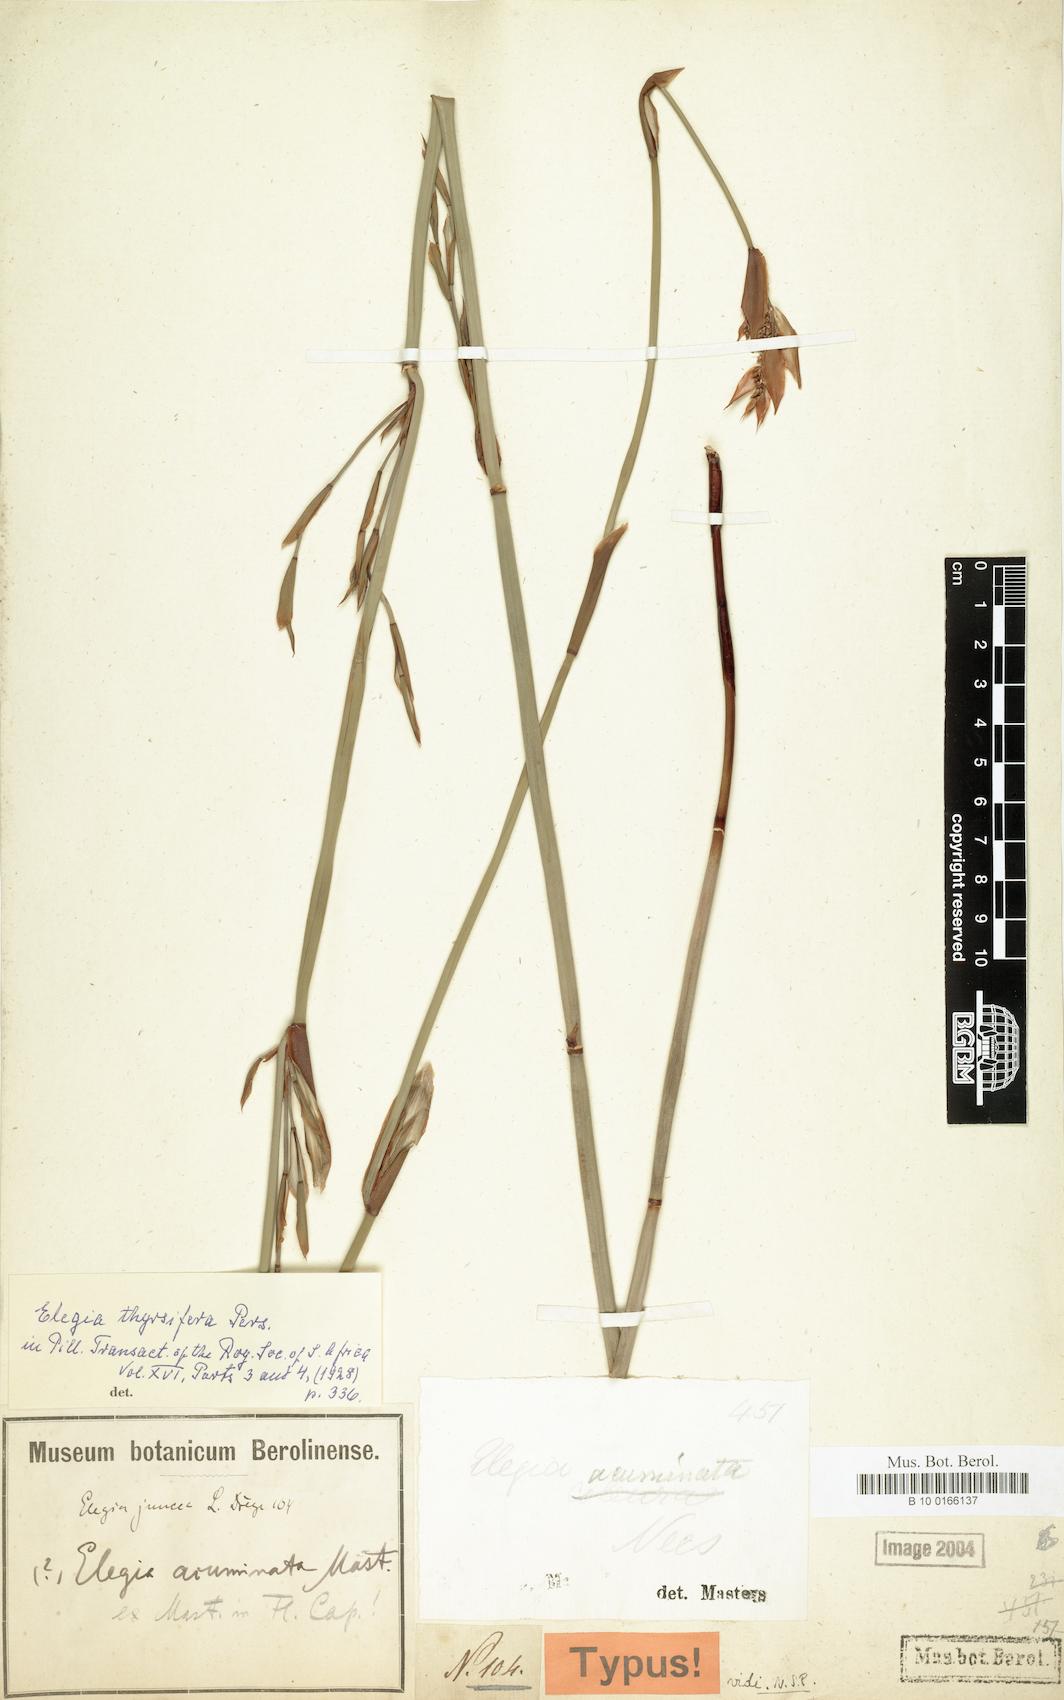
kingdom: Plantae
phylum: Tracheophyta
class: Liliopsida
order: Poales
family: Restionaceae
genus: Elegia
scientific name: Elegia thyrsifera
